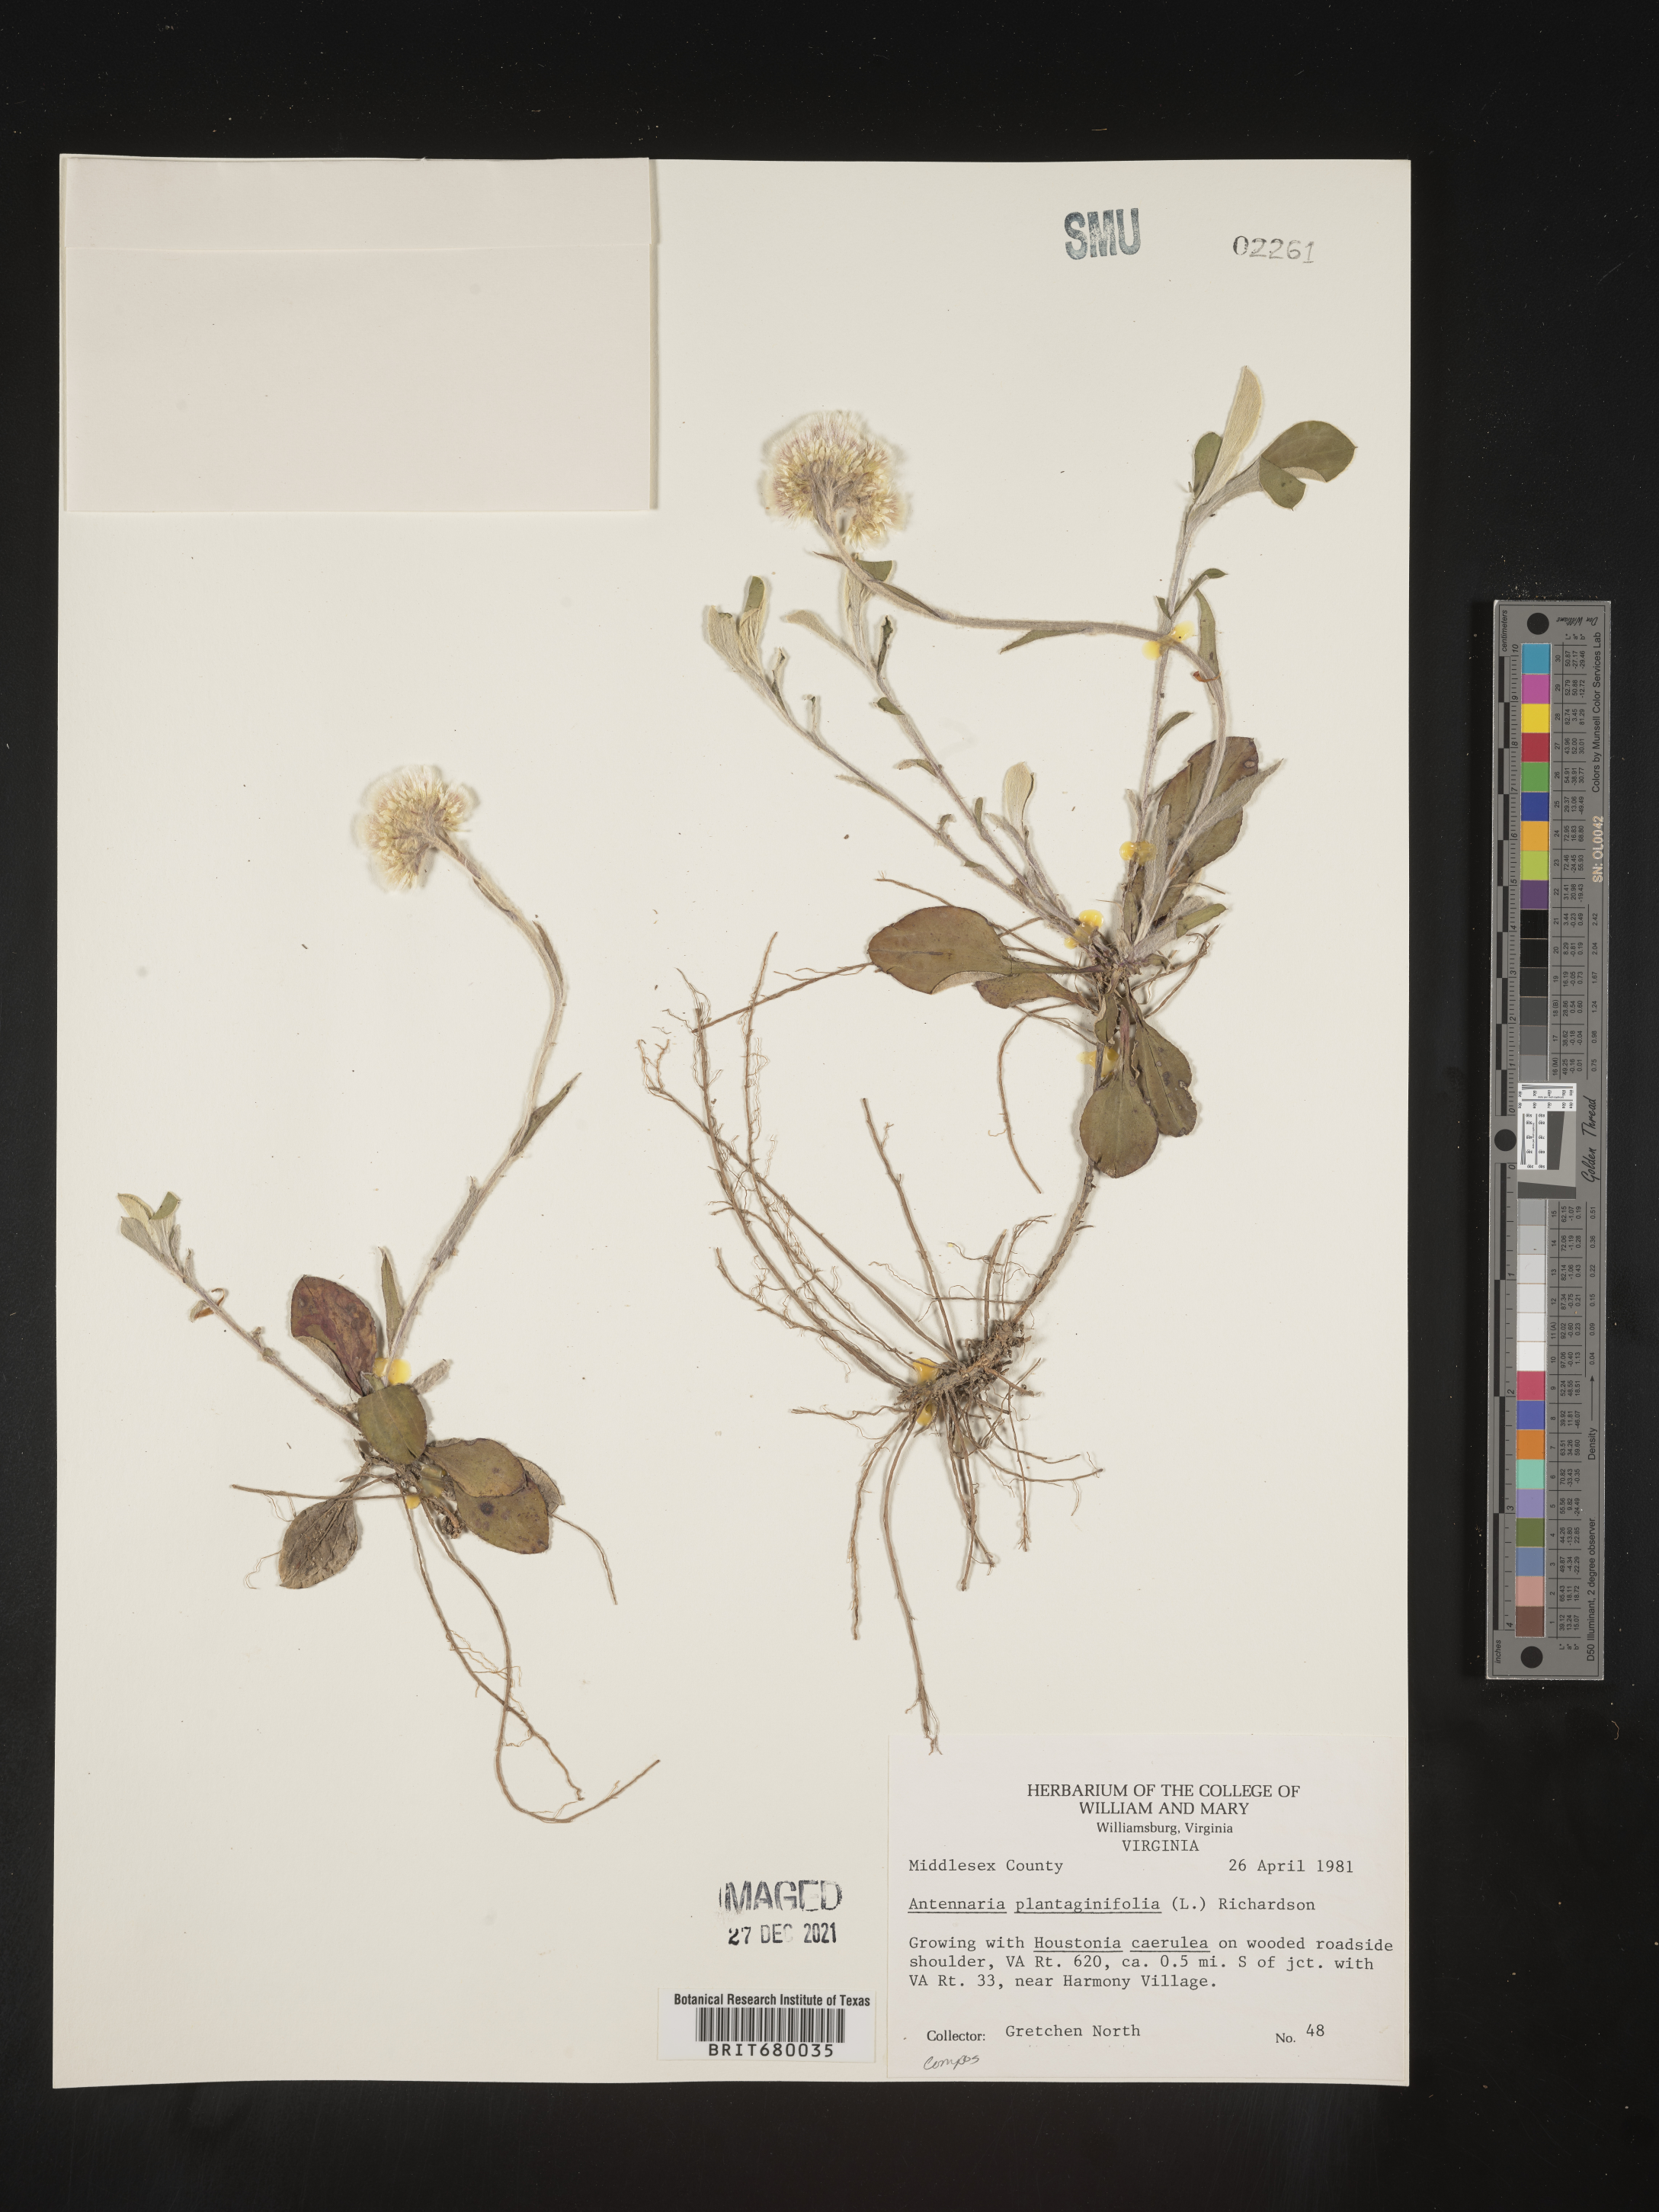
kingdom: Plantae
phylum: Tracheophyta
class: Magnoliopsida
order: Asterales
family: Asteraceae
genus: Antennaria
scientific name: Antennaria plantaginifolia
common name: Plantain-leaved pussytoes
